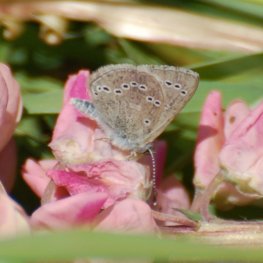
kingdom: Animalia
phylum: Arthropoda
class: Insecta
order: Lepidoptera
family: Lycaenidae
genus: Glaucopsyche
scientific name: Glaucopsyche lygdamus
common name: Silvery Blue
